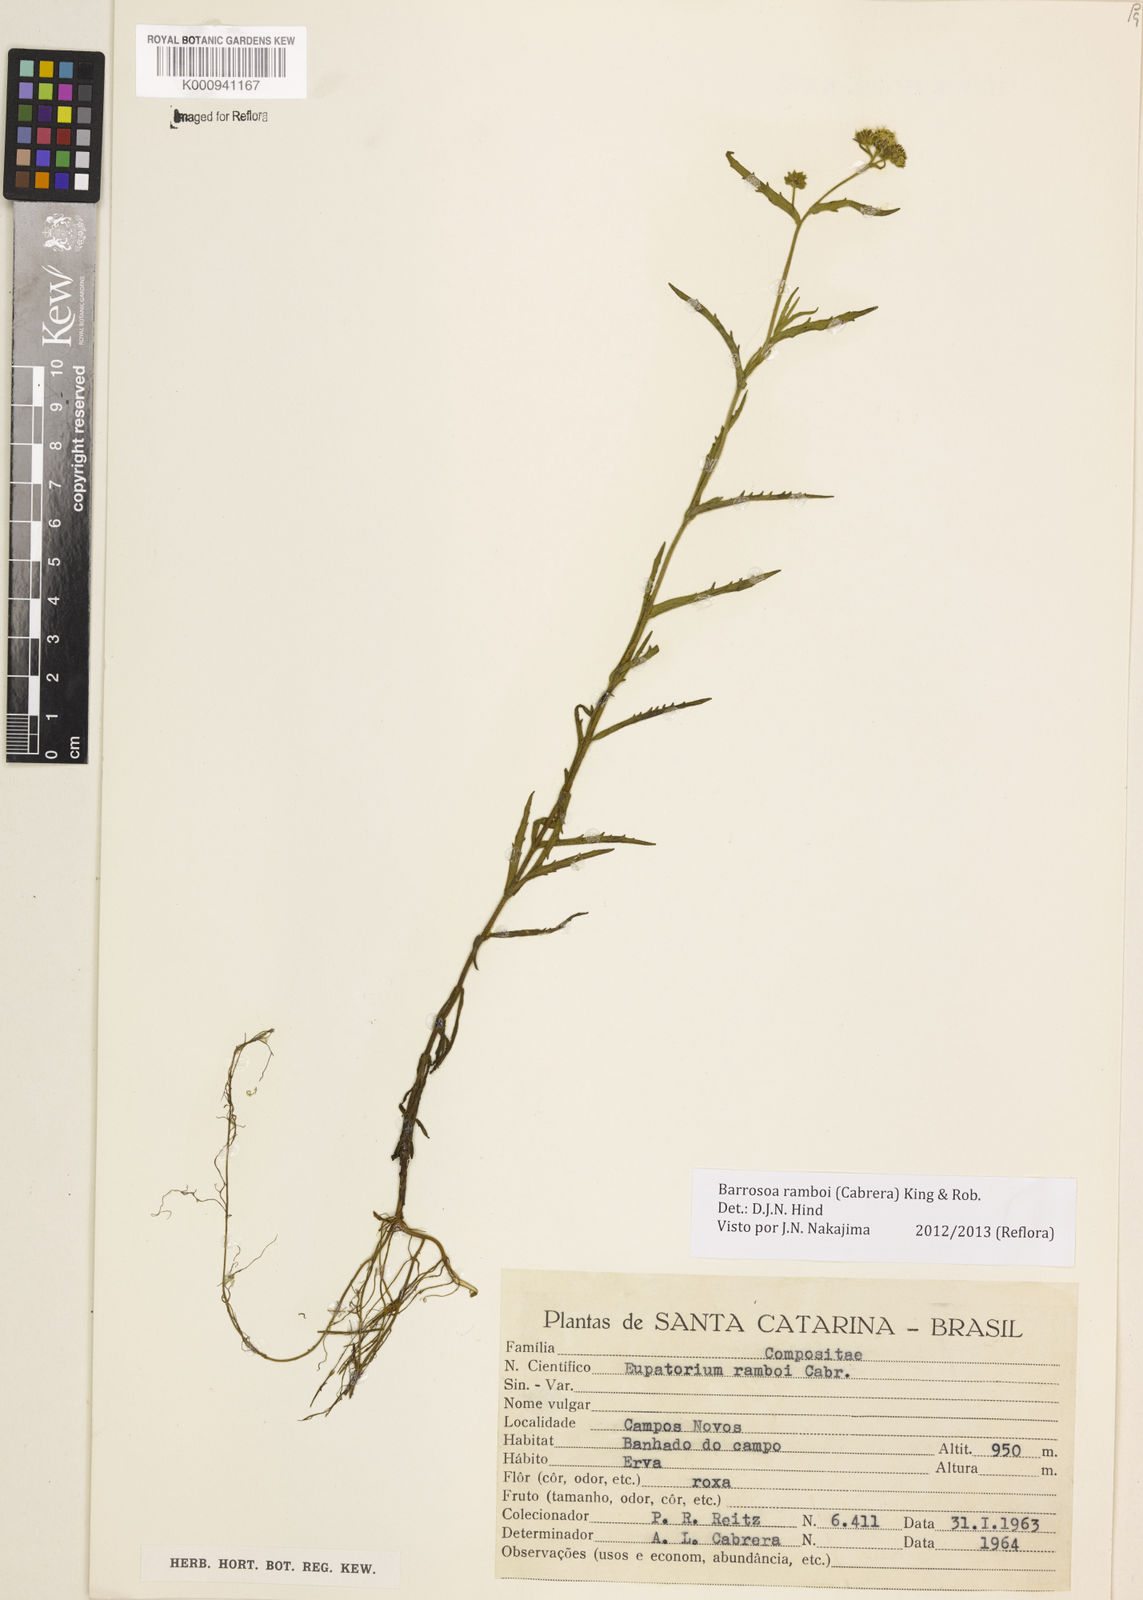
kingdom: Plantae
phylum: Tracheophyta
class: Magnoliopsida
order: Asterales
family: Asteraceae
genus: Barrosoa
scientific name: Barrosoa ramboi
